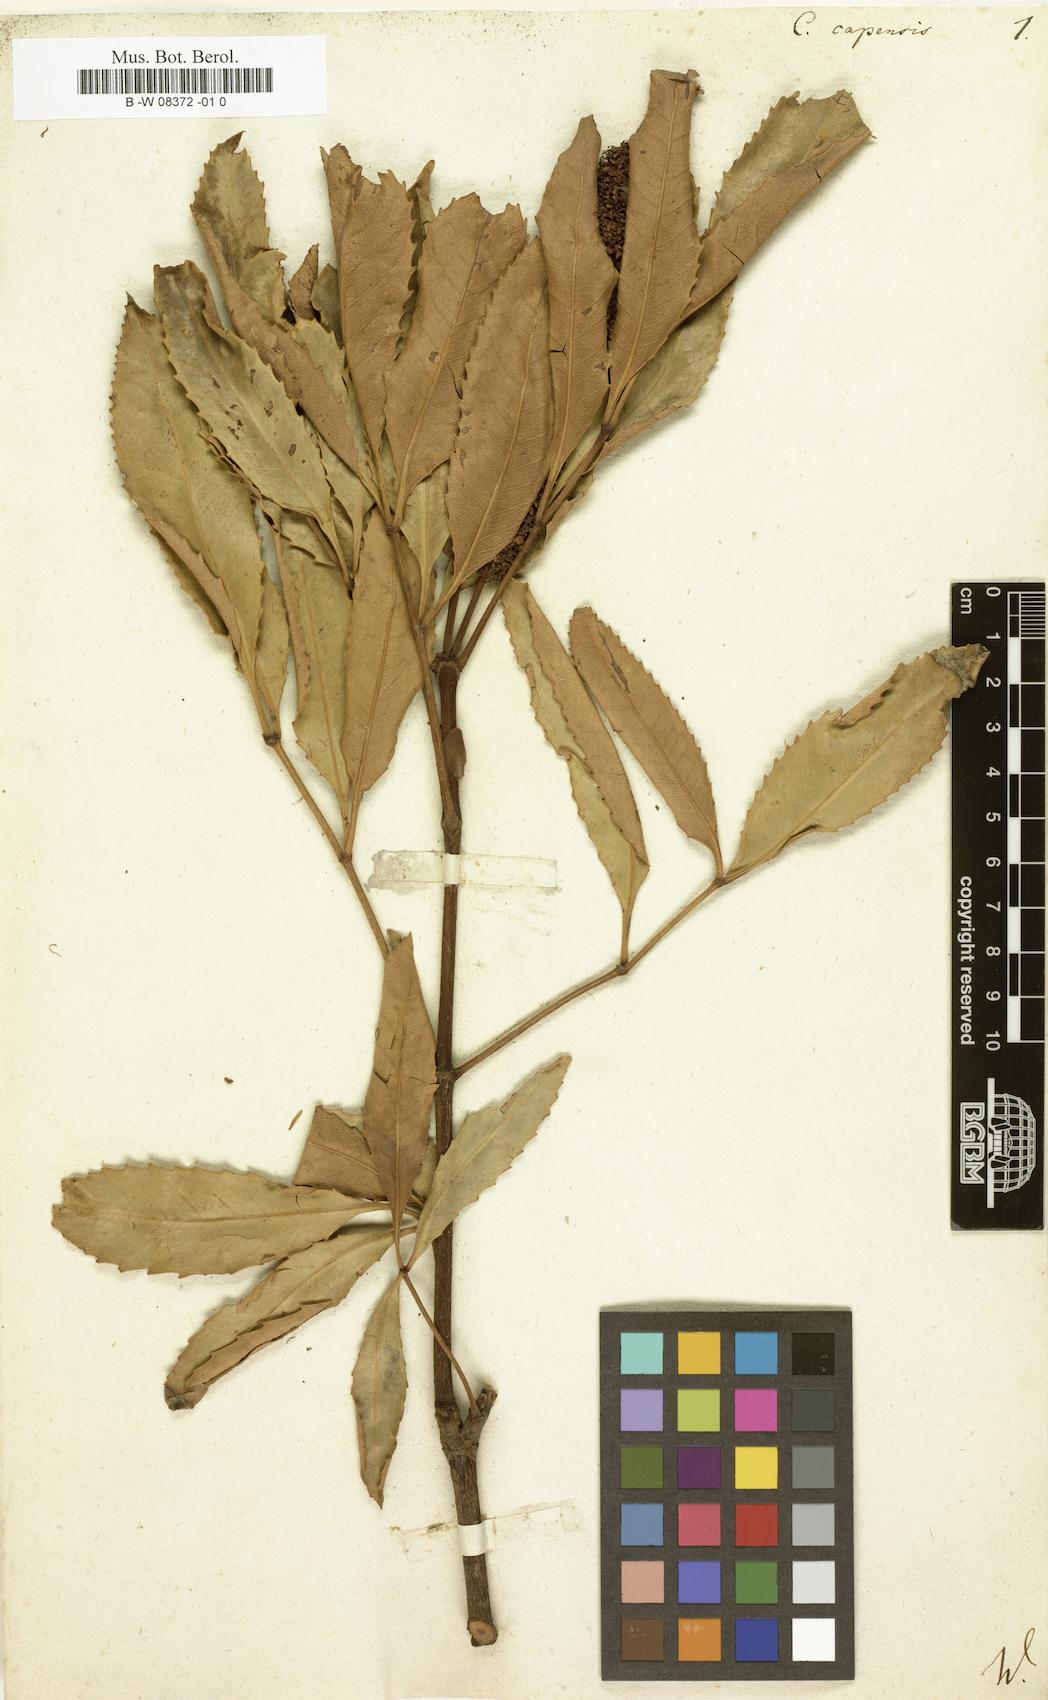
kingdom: Plantae
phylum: Tracheophyta
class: Magnoliopsida
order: Oxalidales
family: Cunoniaceae
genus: Cunonia
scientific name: Cunonia capensis
